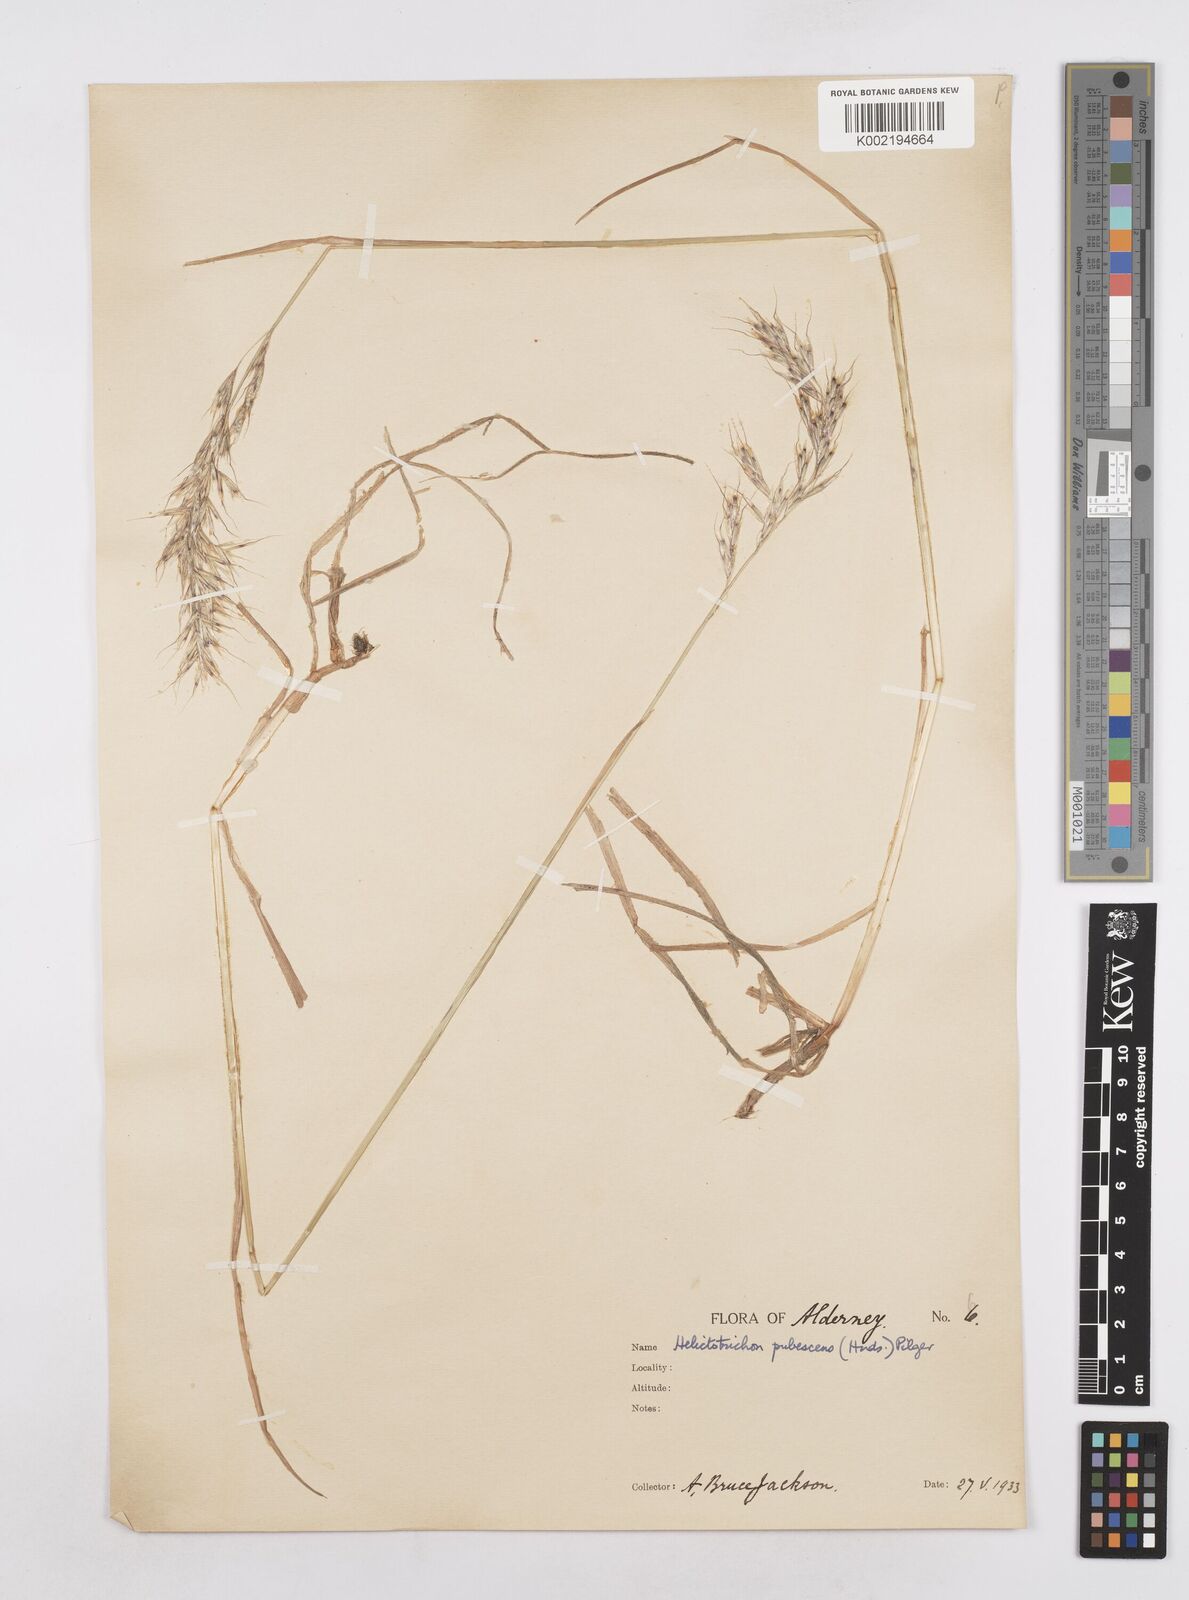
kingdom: Plantae
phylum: Tracheophyta
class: Liliopsida
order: Poales
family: Poaceae
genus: Avenula
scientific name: Avenula pubescens
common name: Downy alpine oatgrass
